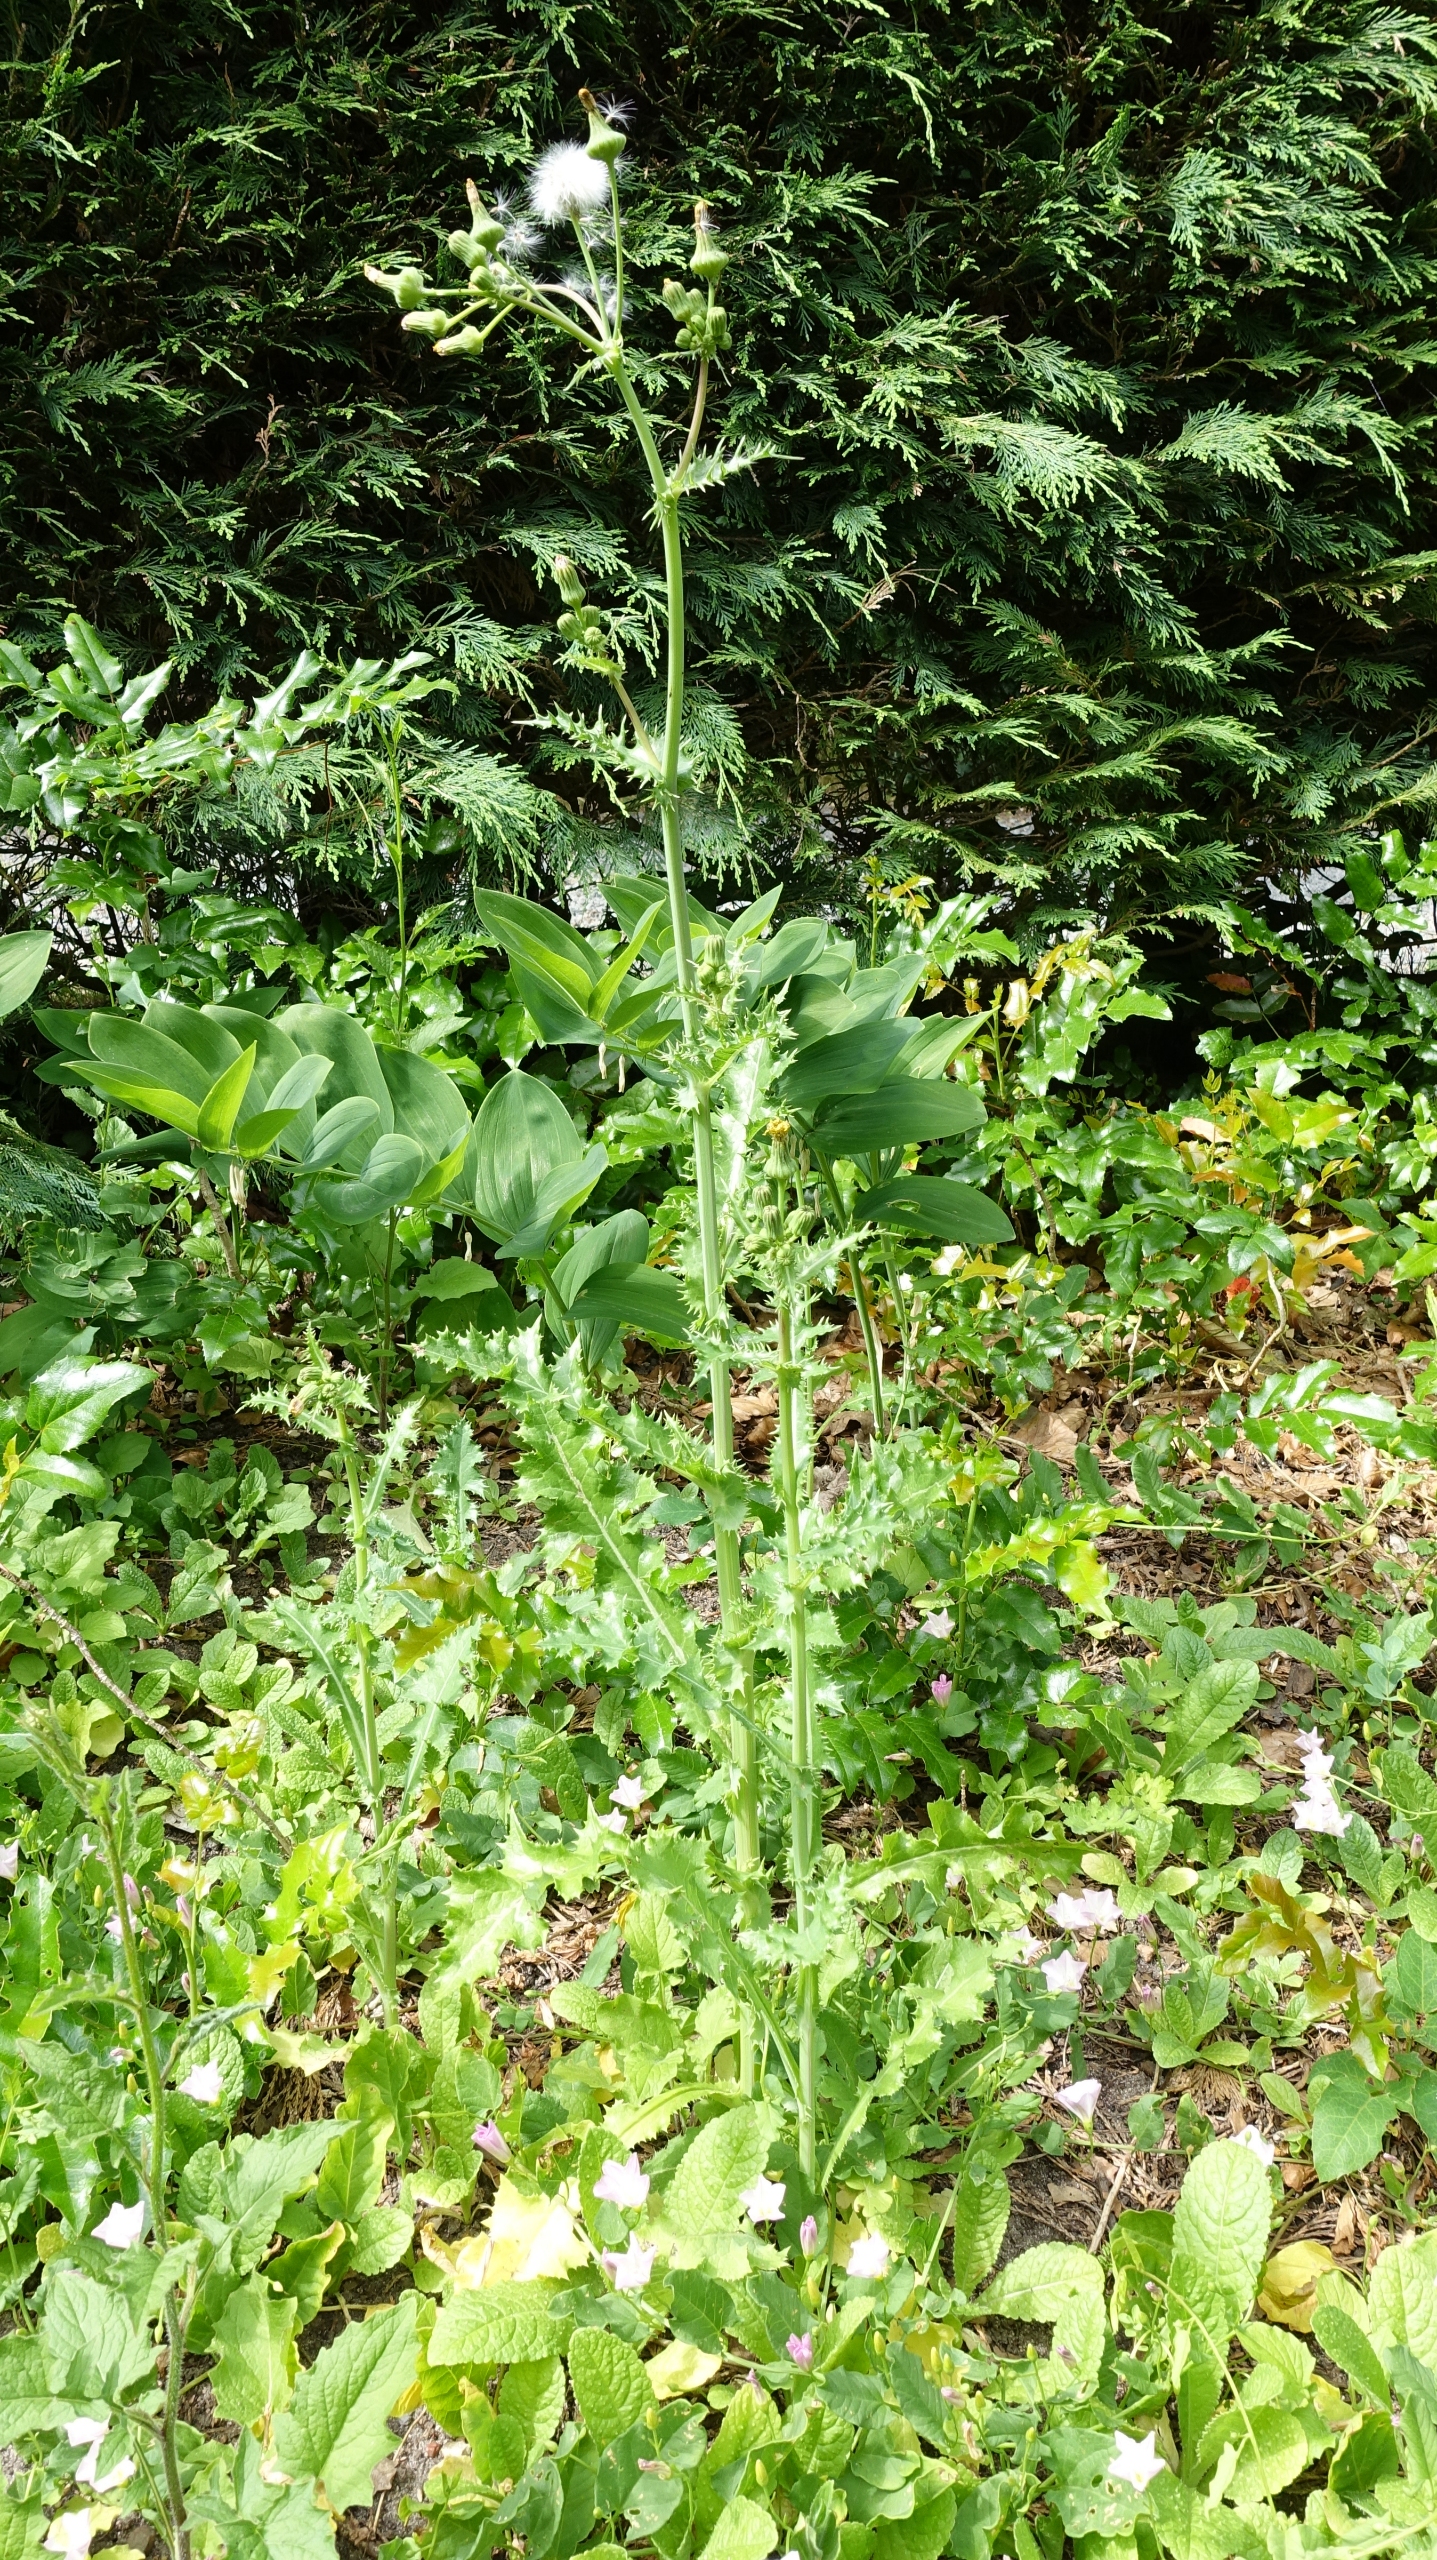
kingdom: Plantae
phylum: Tracheophyta
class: Magnoliopsida
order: Asterales
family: Asteraceae
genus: Sonchus
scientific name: Sonchus asper
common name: Ru svinemælk
